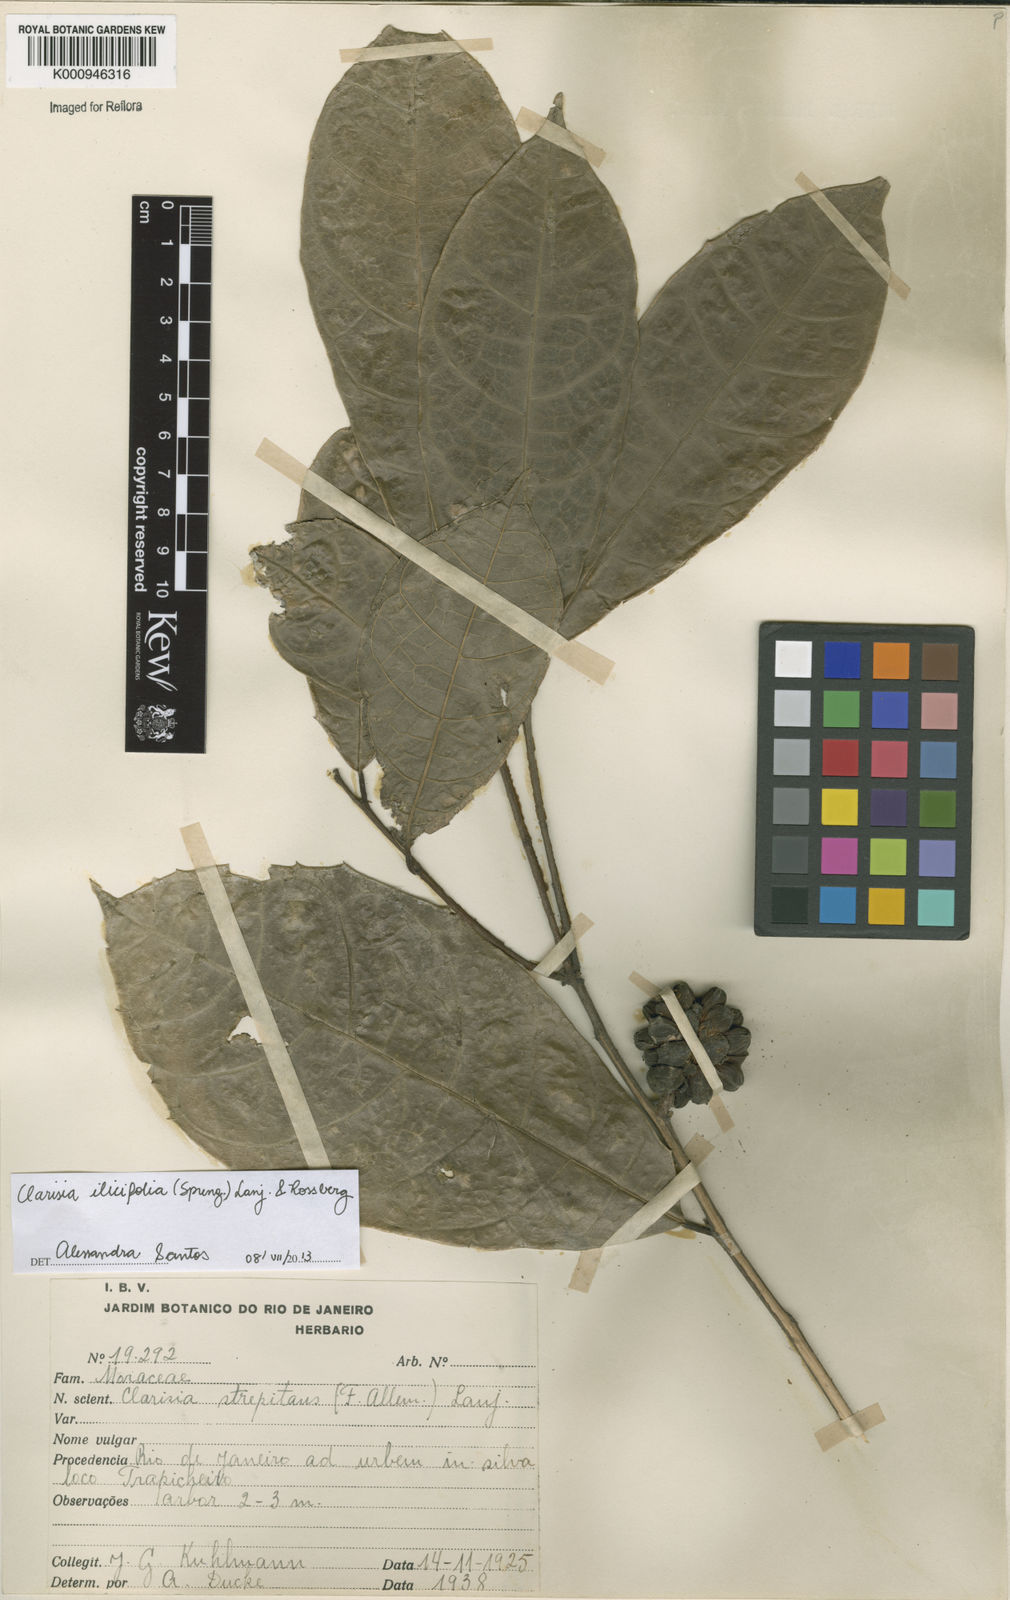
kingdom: Plantae
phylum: Tracheophyta
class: Magnoliopsida
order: Rosales
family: Moraceae
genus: Clarisia
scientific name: Clarisia ilicifolia
